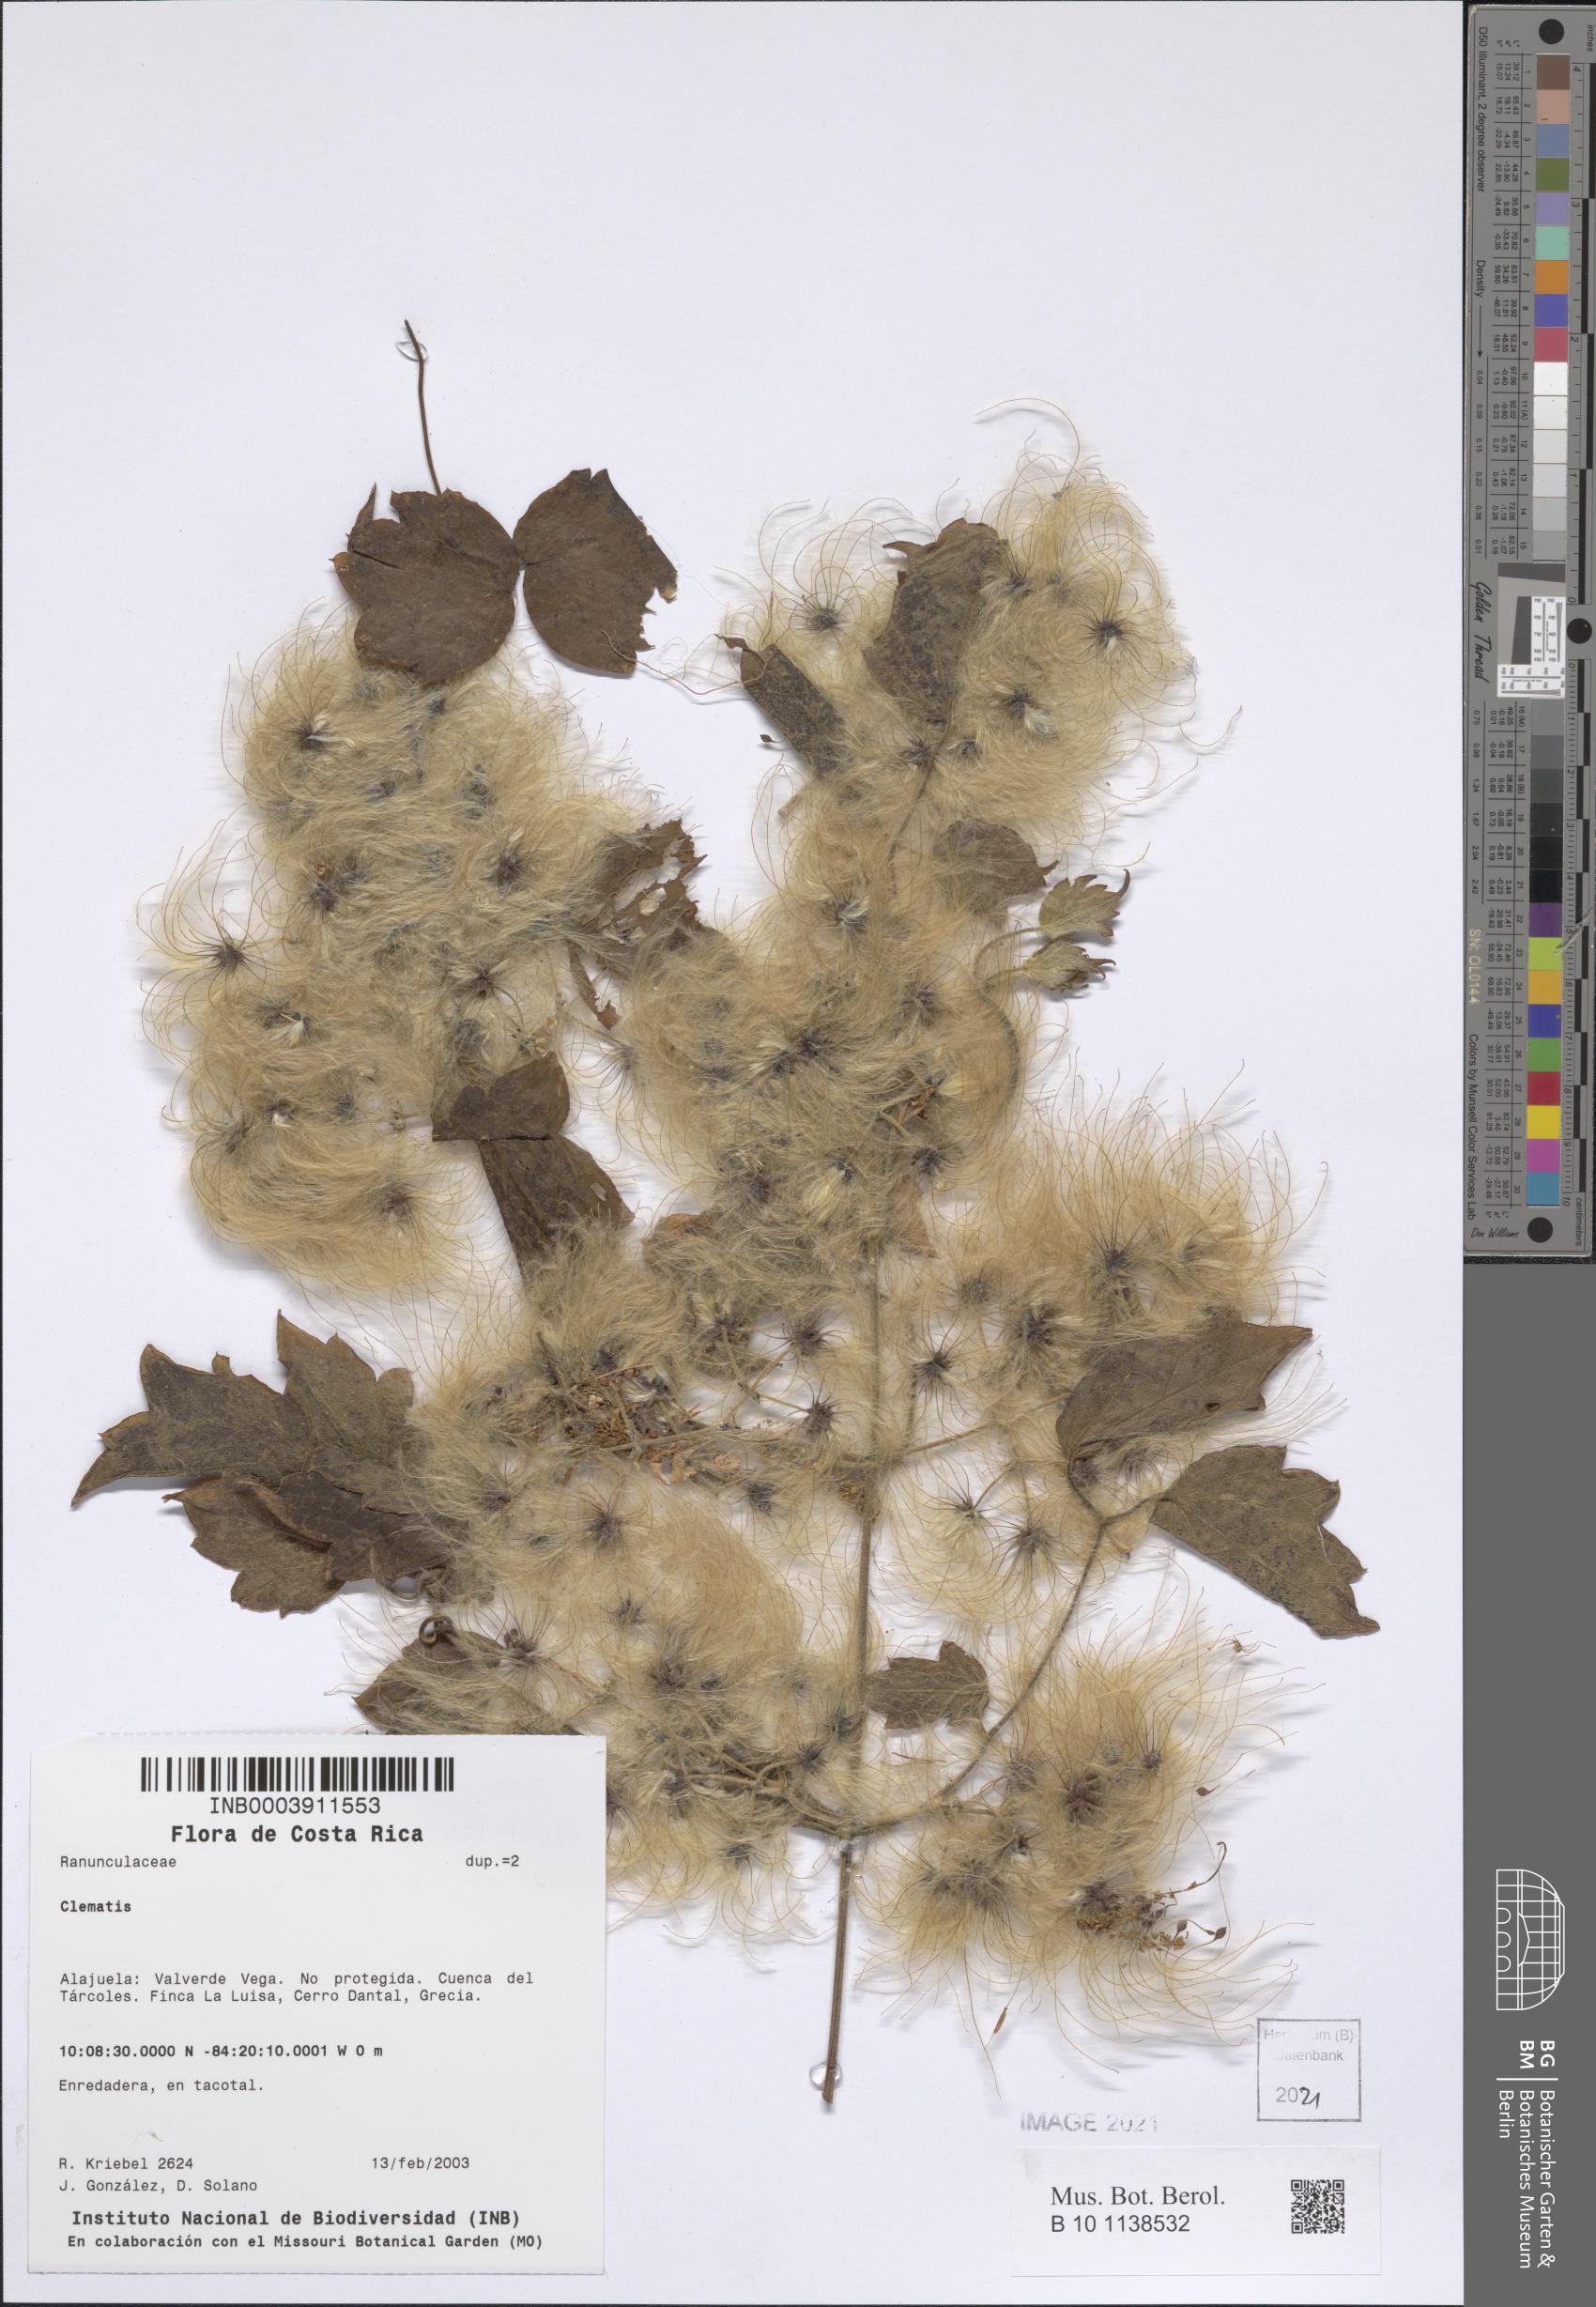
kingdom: Plantae
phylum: Tracheophyta
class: Magnoliopsida
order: Ranunculales
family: Ranunculaceae
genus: Clematis
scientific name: Clematis
